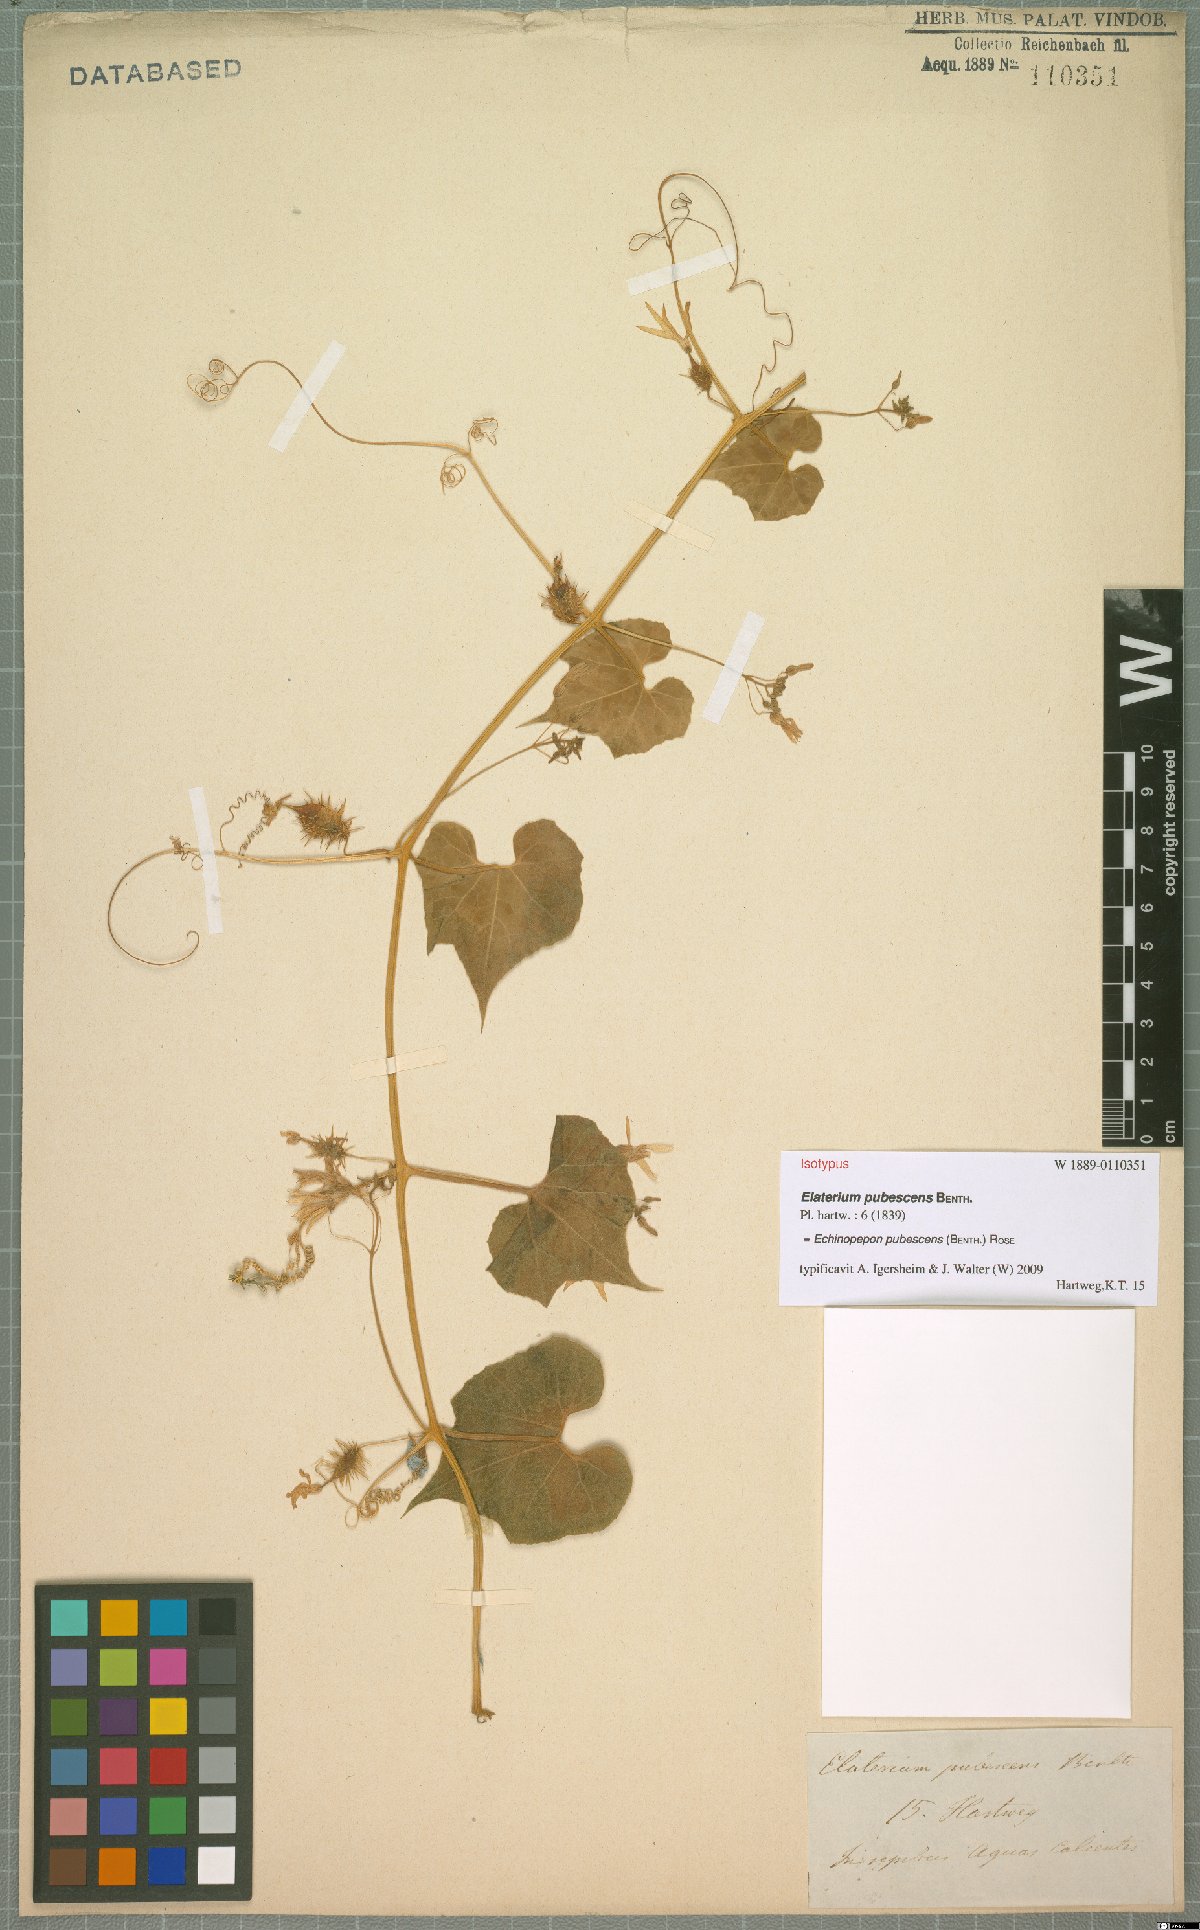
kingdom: Plantae
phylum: Tracheophyta
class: Magnoliopsida
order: Cucurbitales
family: Cucurbitaceae
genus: Echinopepon
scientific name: Echinopepon pubescens
